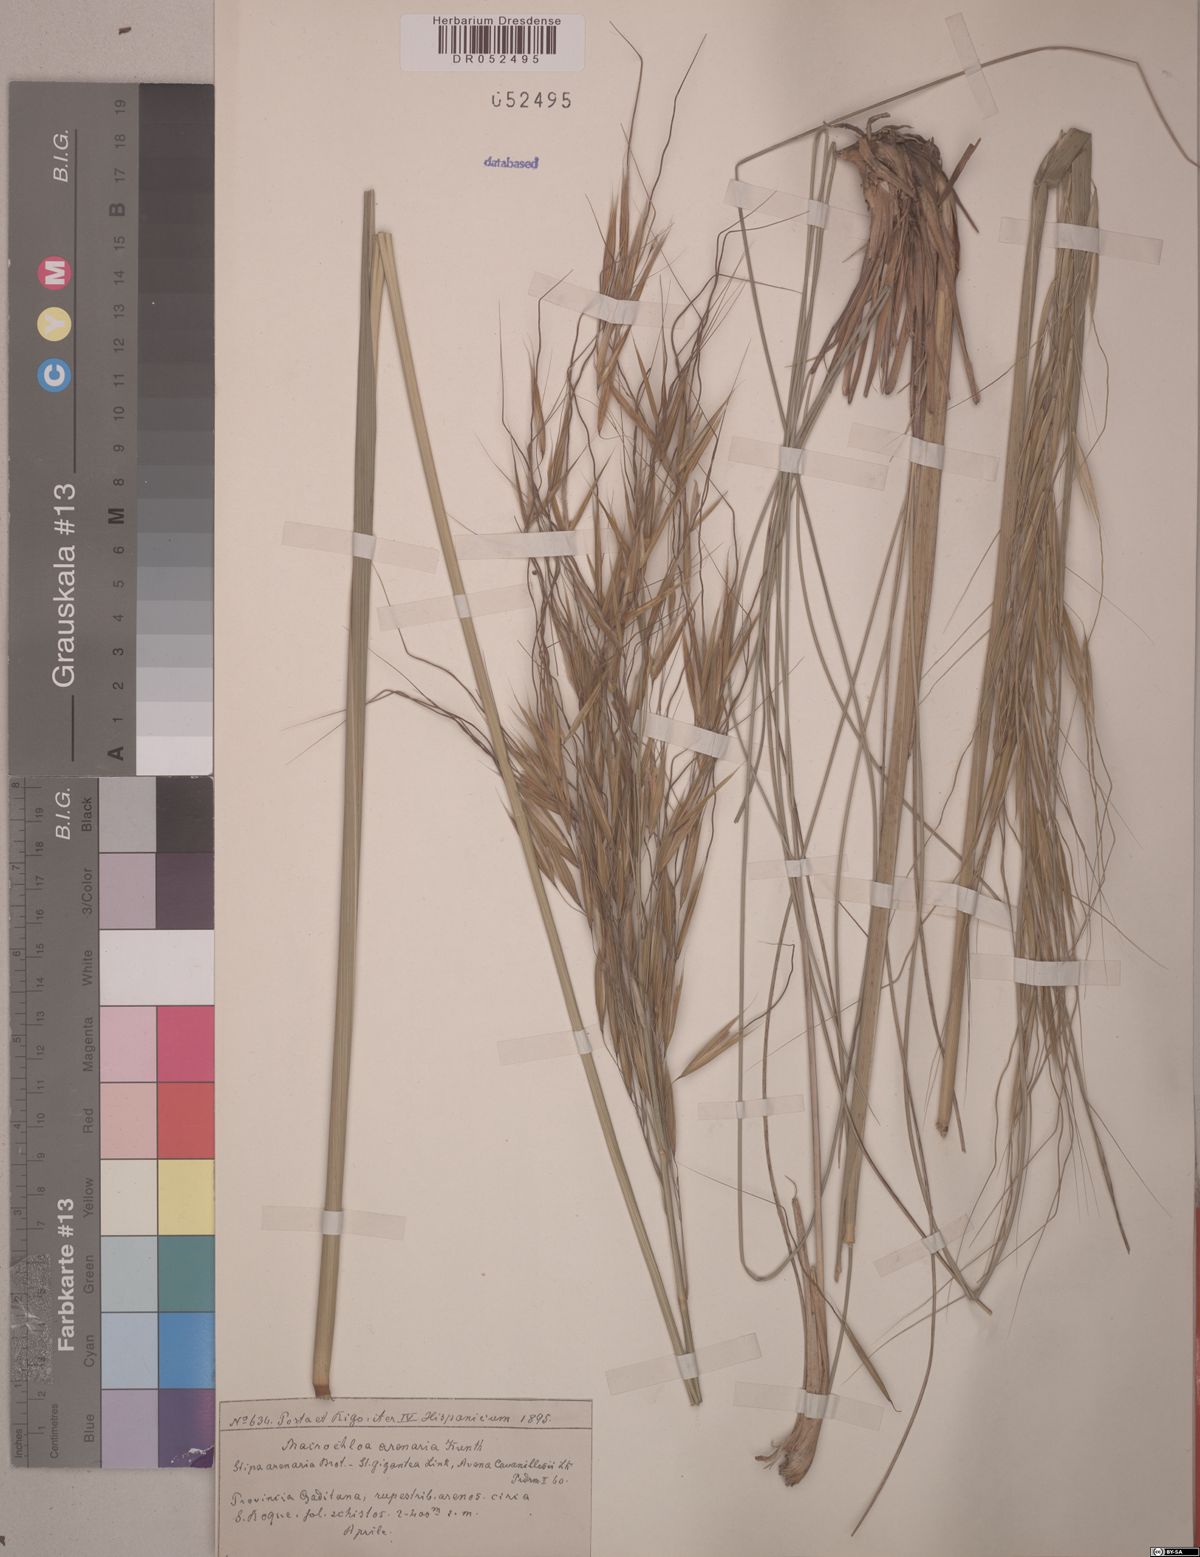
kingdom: Plantae
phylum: Tracheophyta
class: Liliopsida
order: Poales
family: Poaceae
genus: Celtica
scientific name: Celtica gigantea
